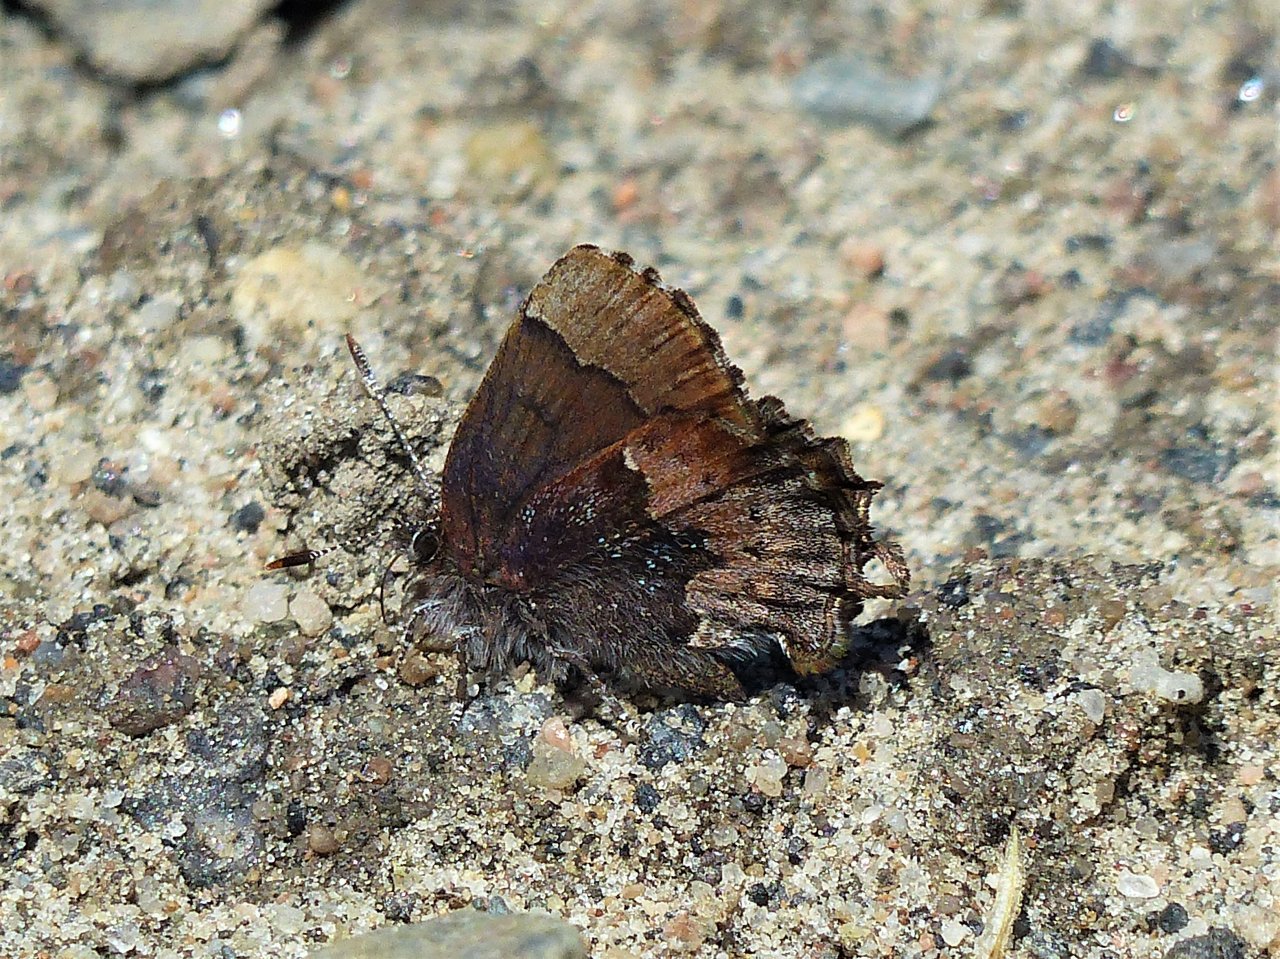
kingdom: Animalia
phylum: Arthropoda
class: Insecta
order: Lepidoptera
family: Lycaenidae
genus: Incisalia
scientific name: Incisalia henrici
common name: Henry's Elfin
